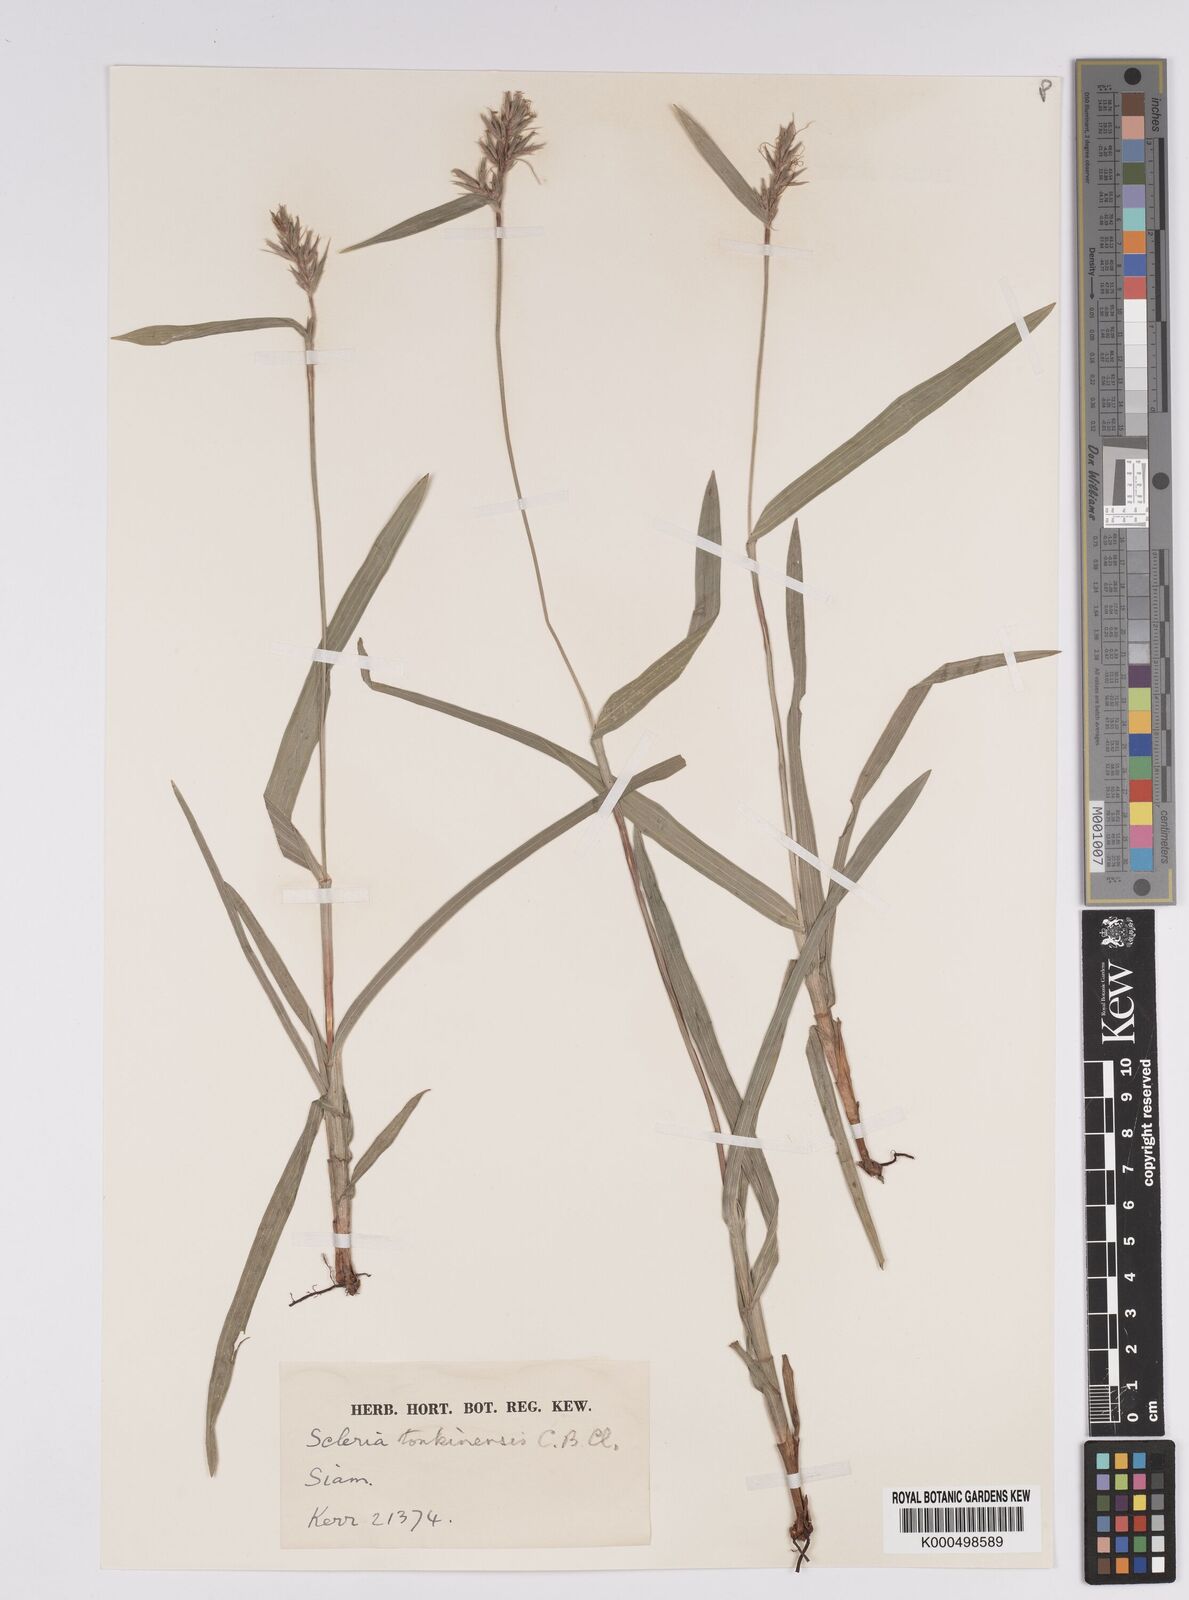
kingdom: Plantae
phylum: Tracheophyta
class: Liliopsida
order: Poales
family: Cyperaceae
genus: Scleria
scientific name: Scleria tonkinensis
